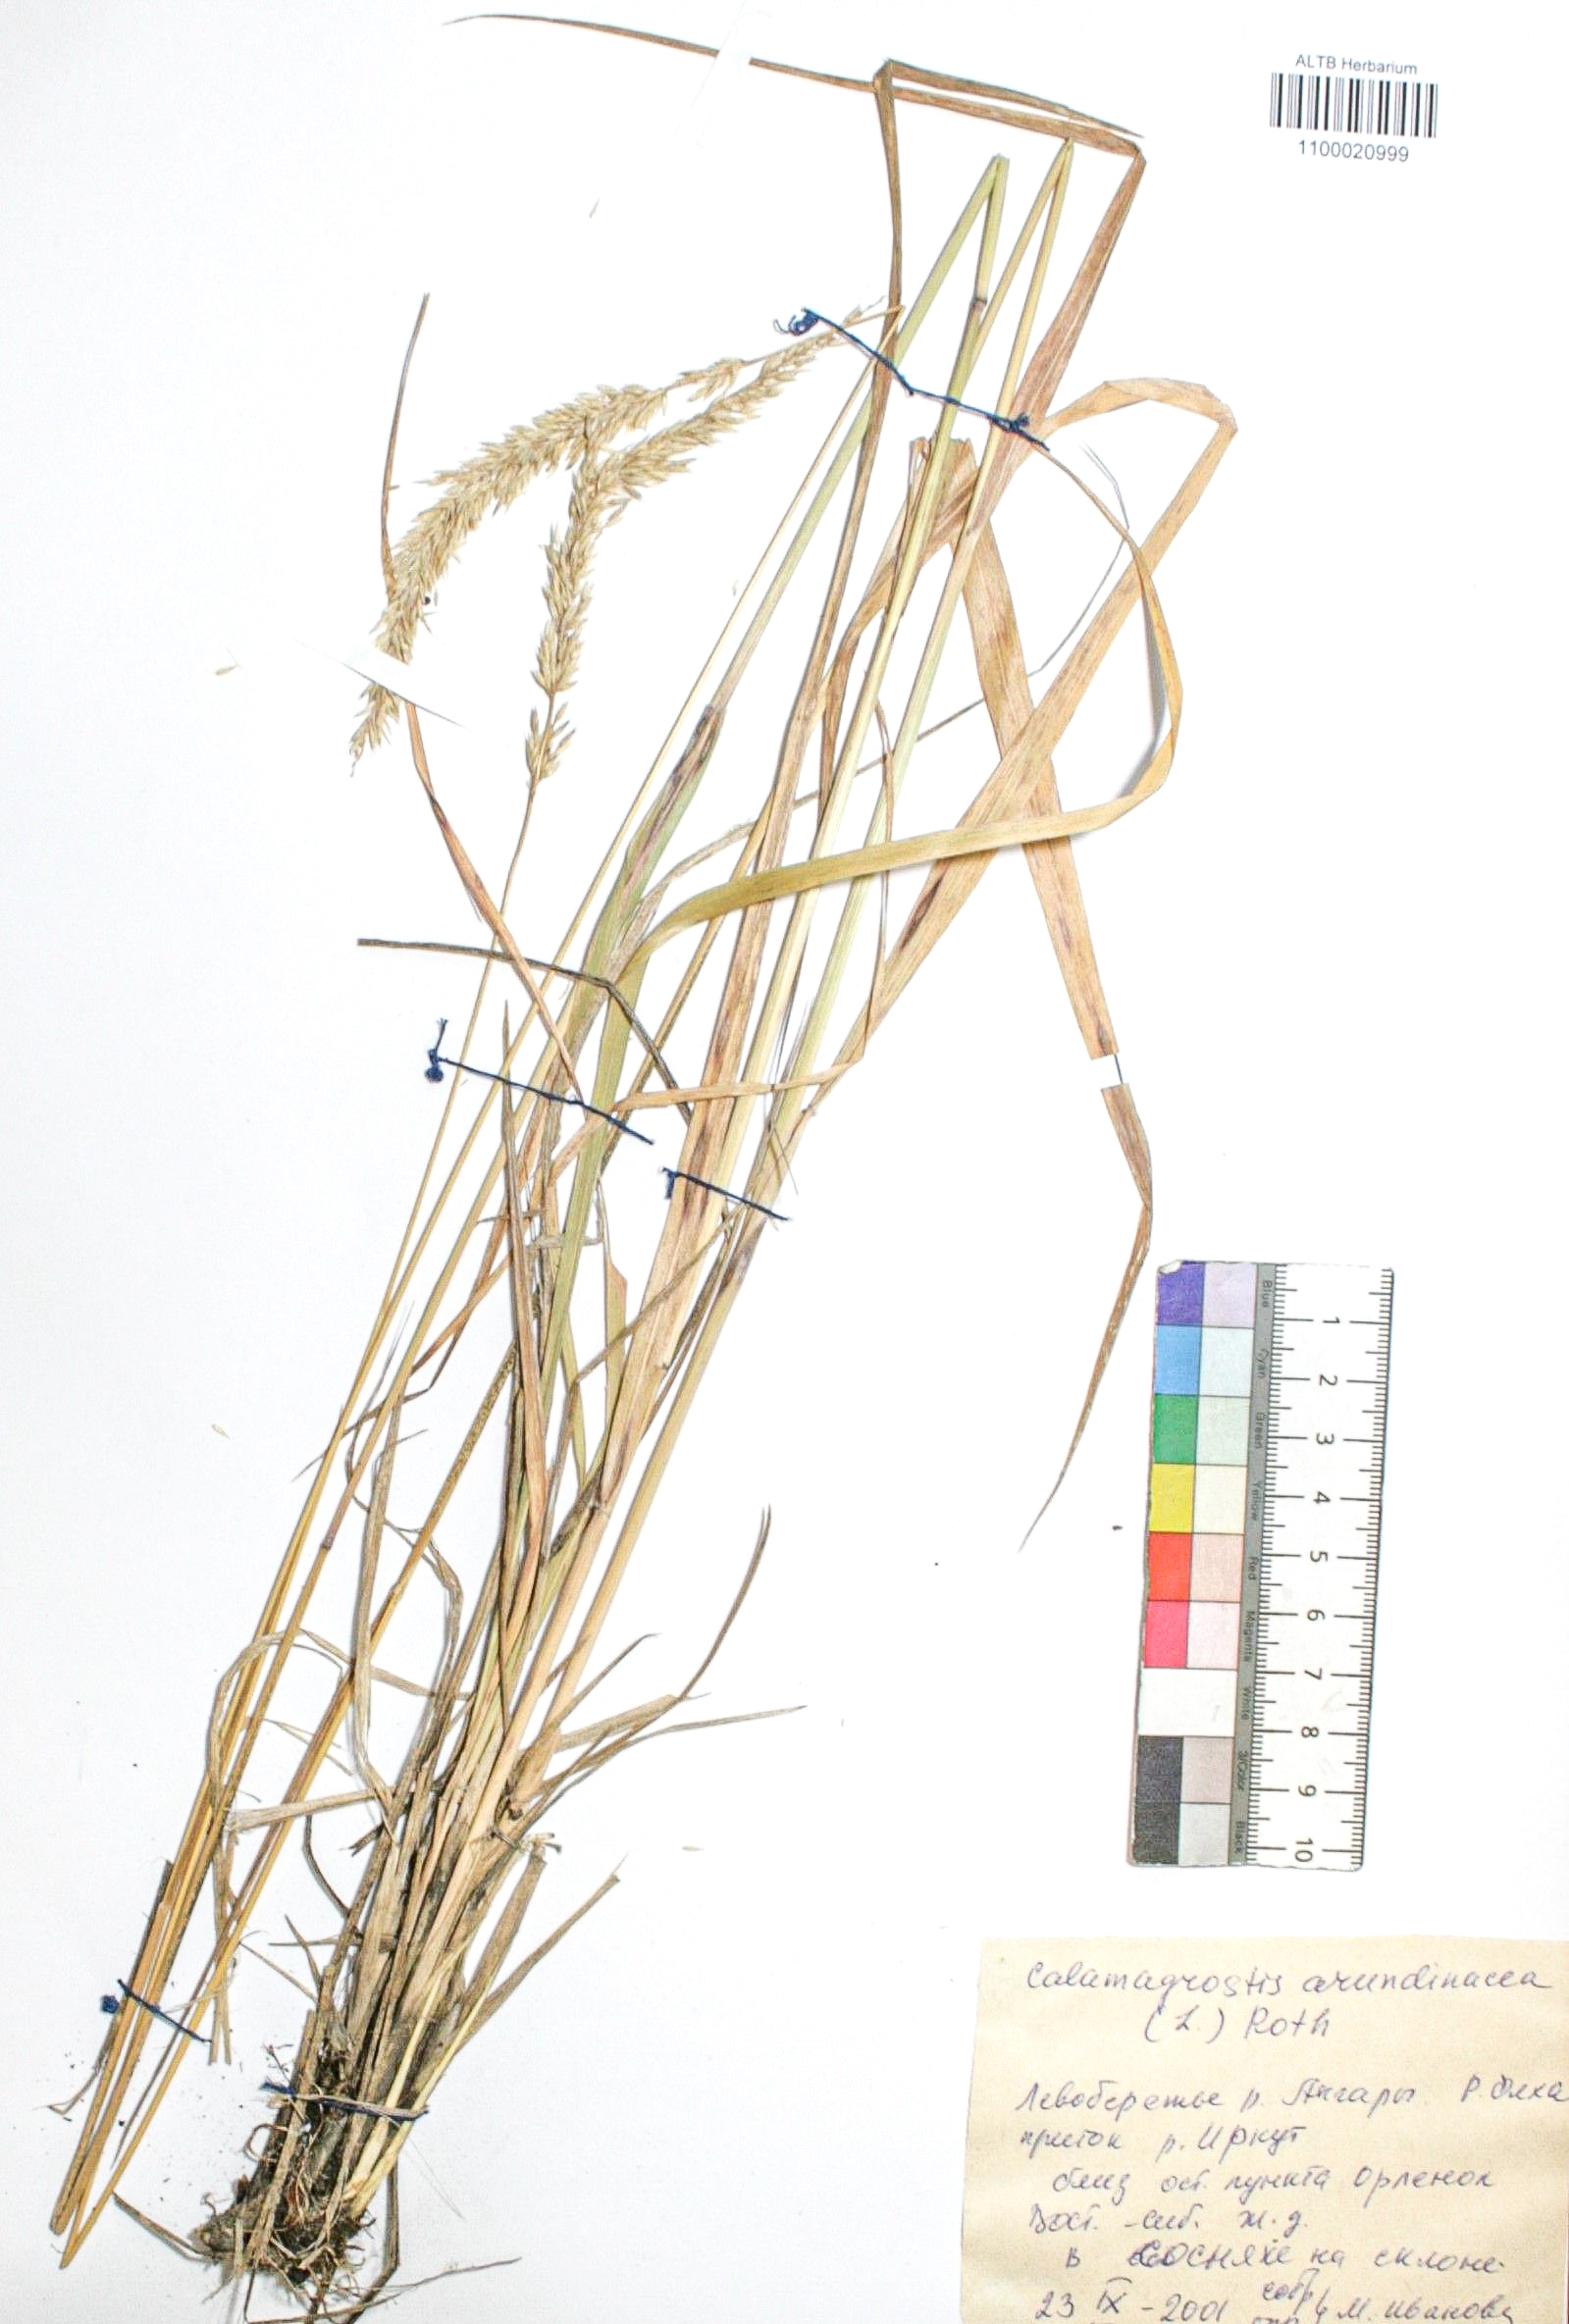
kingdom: Plantae
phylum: Tracheophyta
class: Liliopsida
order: Poales
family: Poaceae
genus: Calamagrostis
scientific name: Calamagrostis arundinacea
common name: Metskastik
